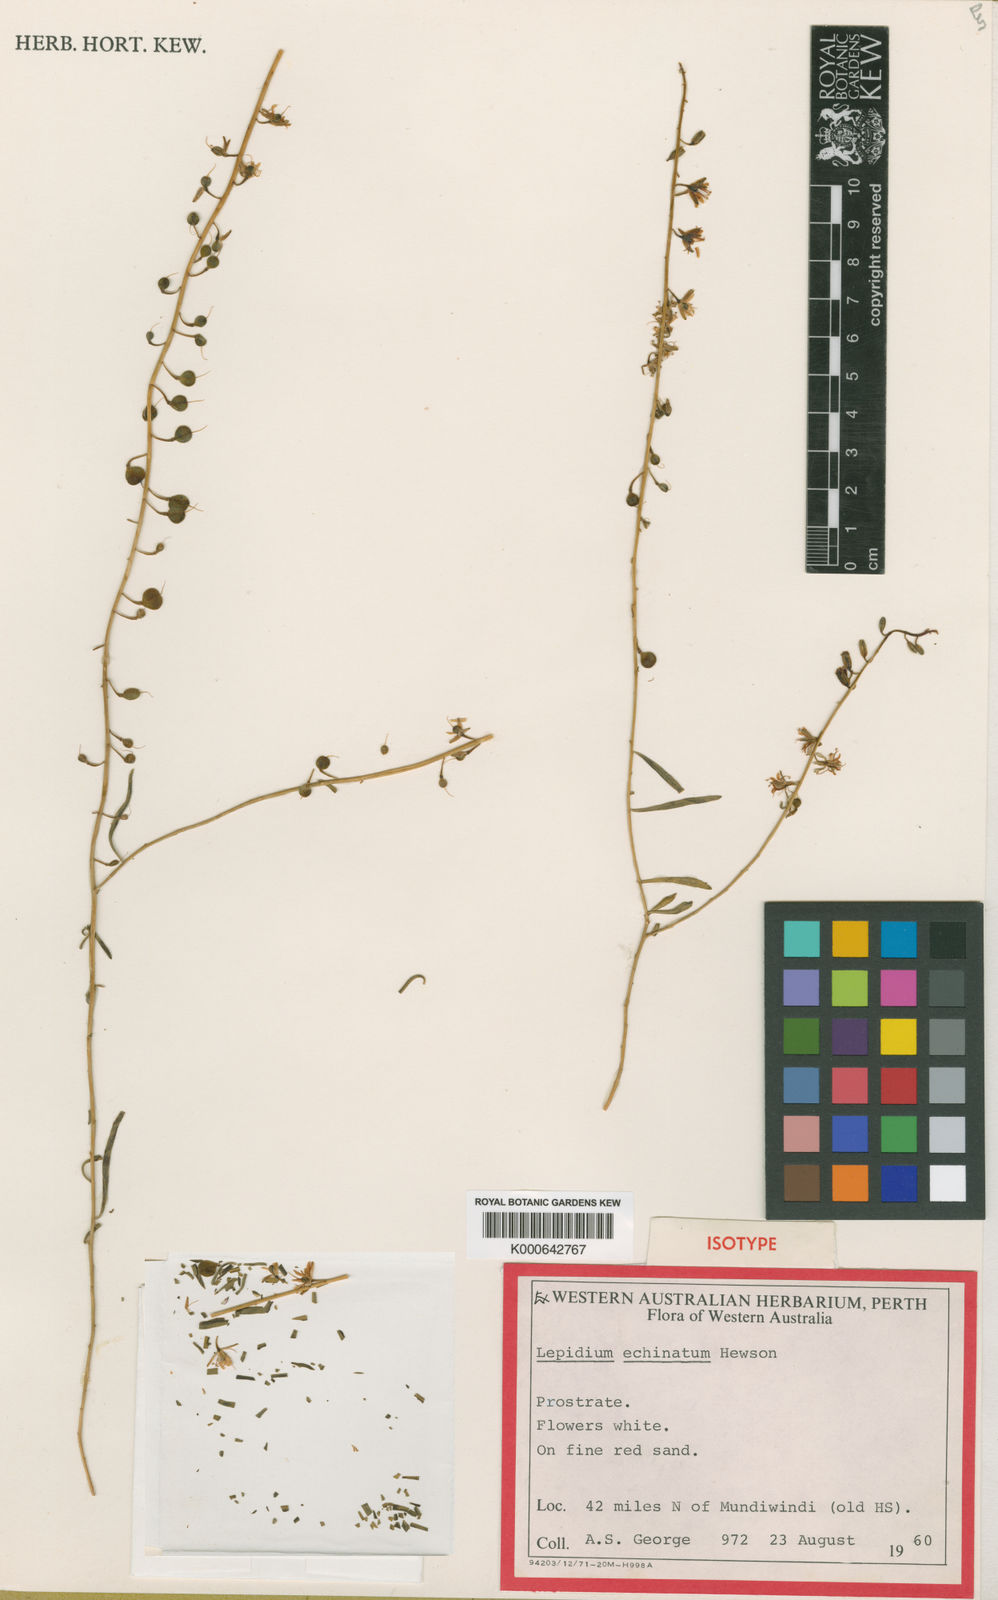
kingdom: Plantae
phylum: Tracheophyta
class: Magnoliopsida
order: Brassicales
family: Brassicaceae
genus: Lepidium
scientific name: Lepidium echinatum
